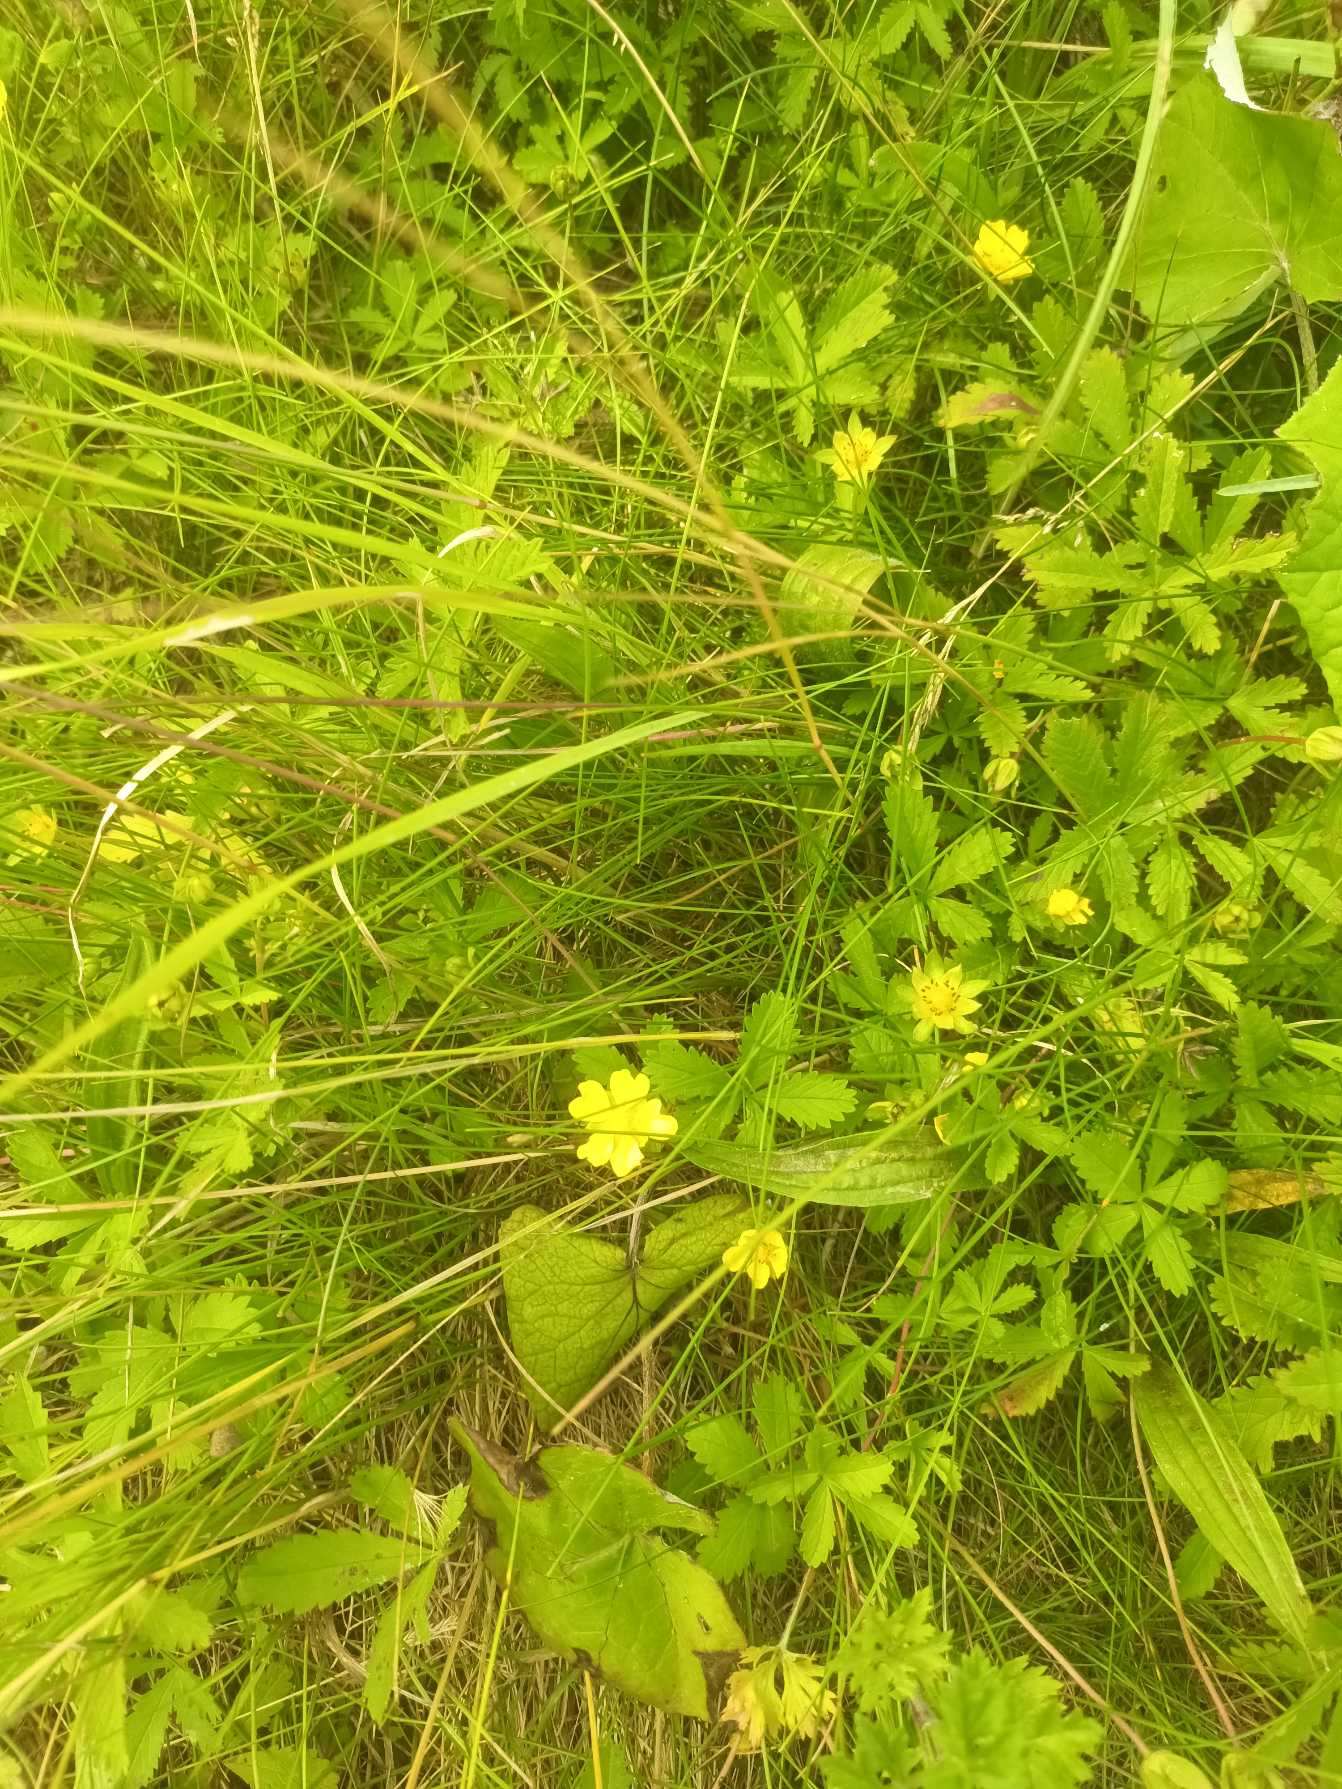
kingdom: Plantae
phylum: Tracheophyta
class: Magnoliopsida
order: Rosales
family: Rosaceae
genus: Potentilla
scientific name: Potentilla reptans
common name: Krybende potentil
